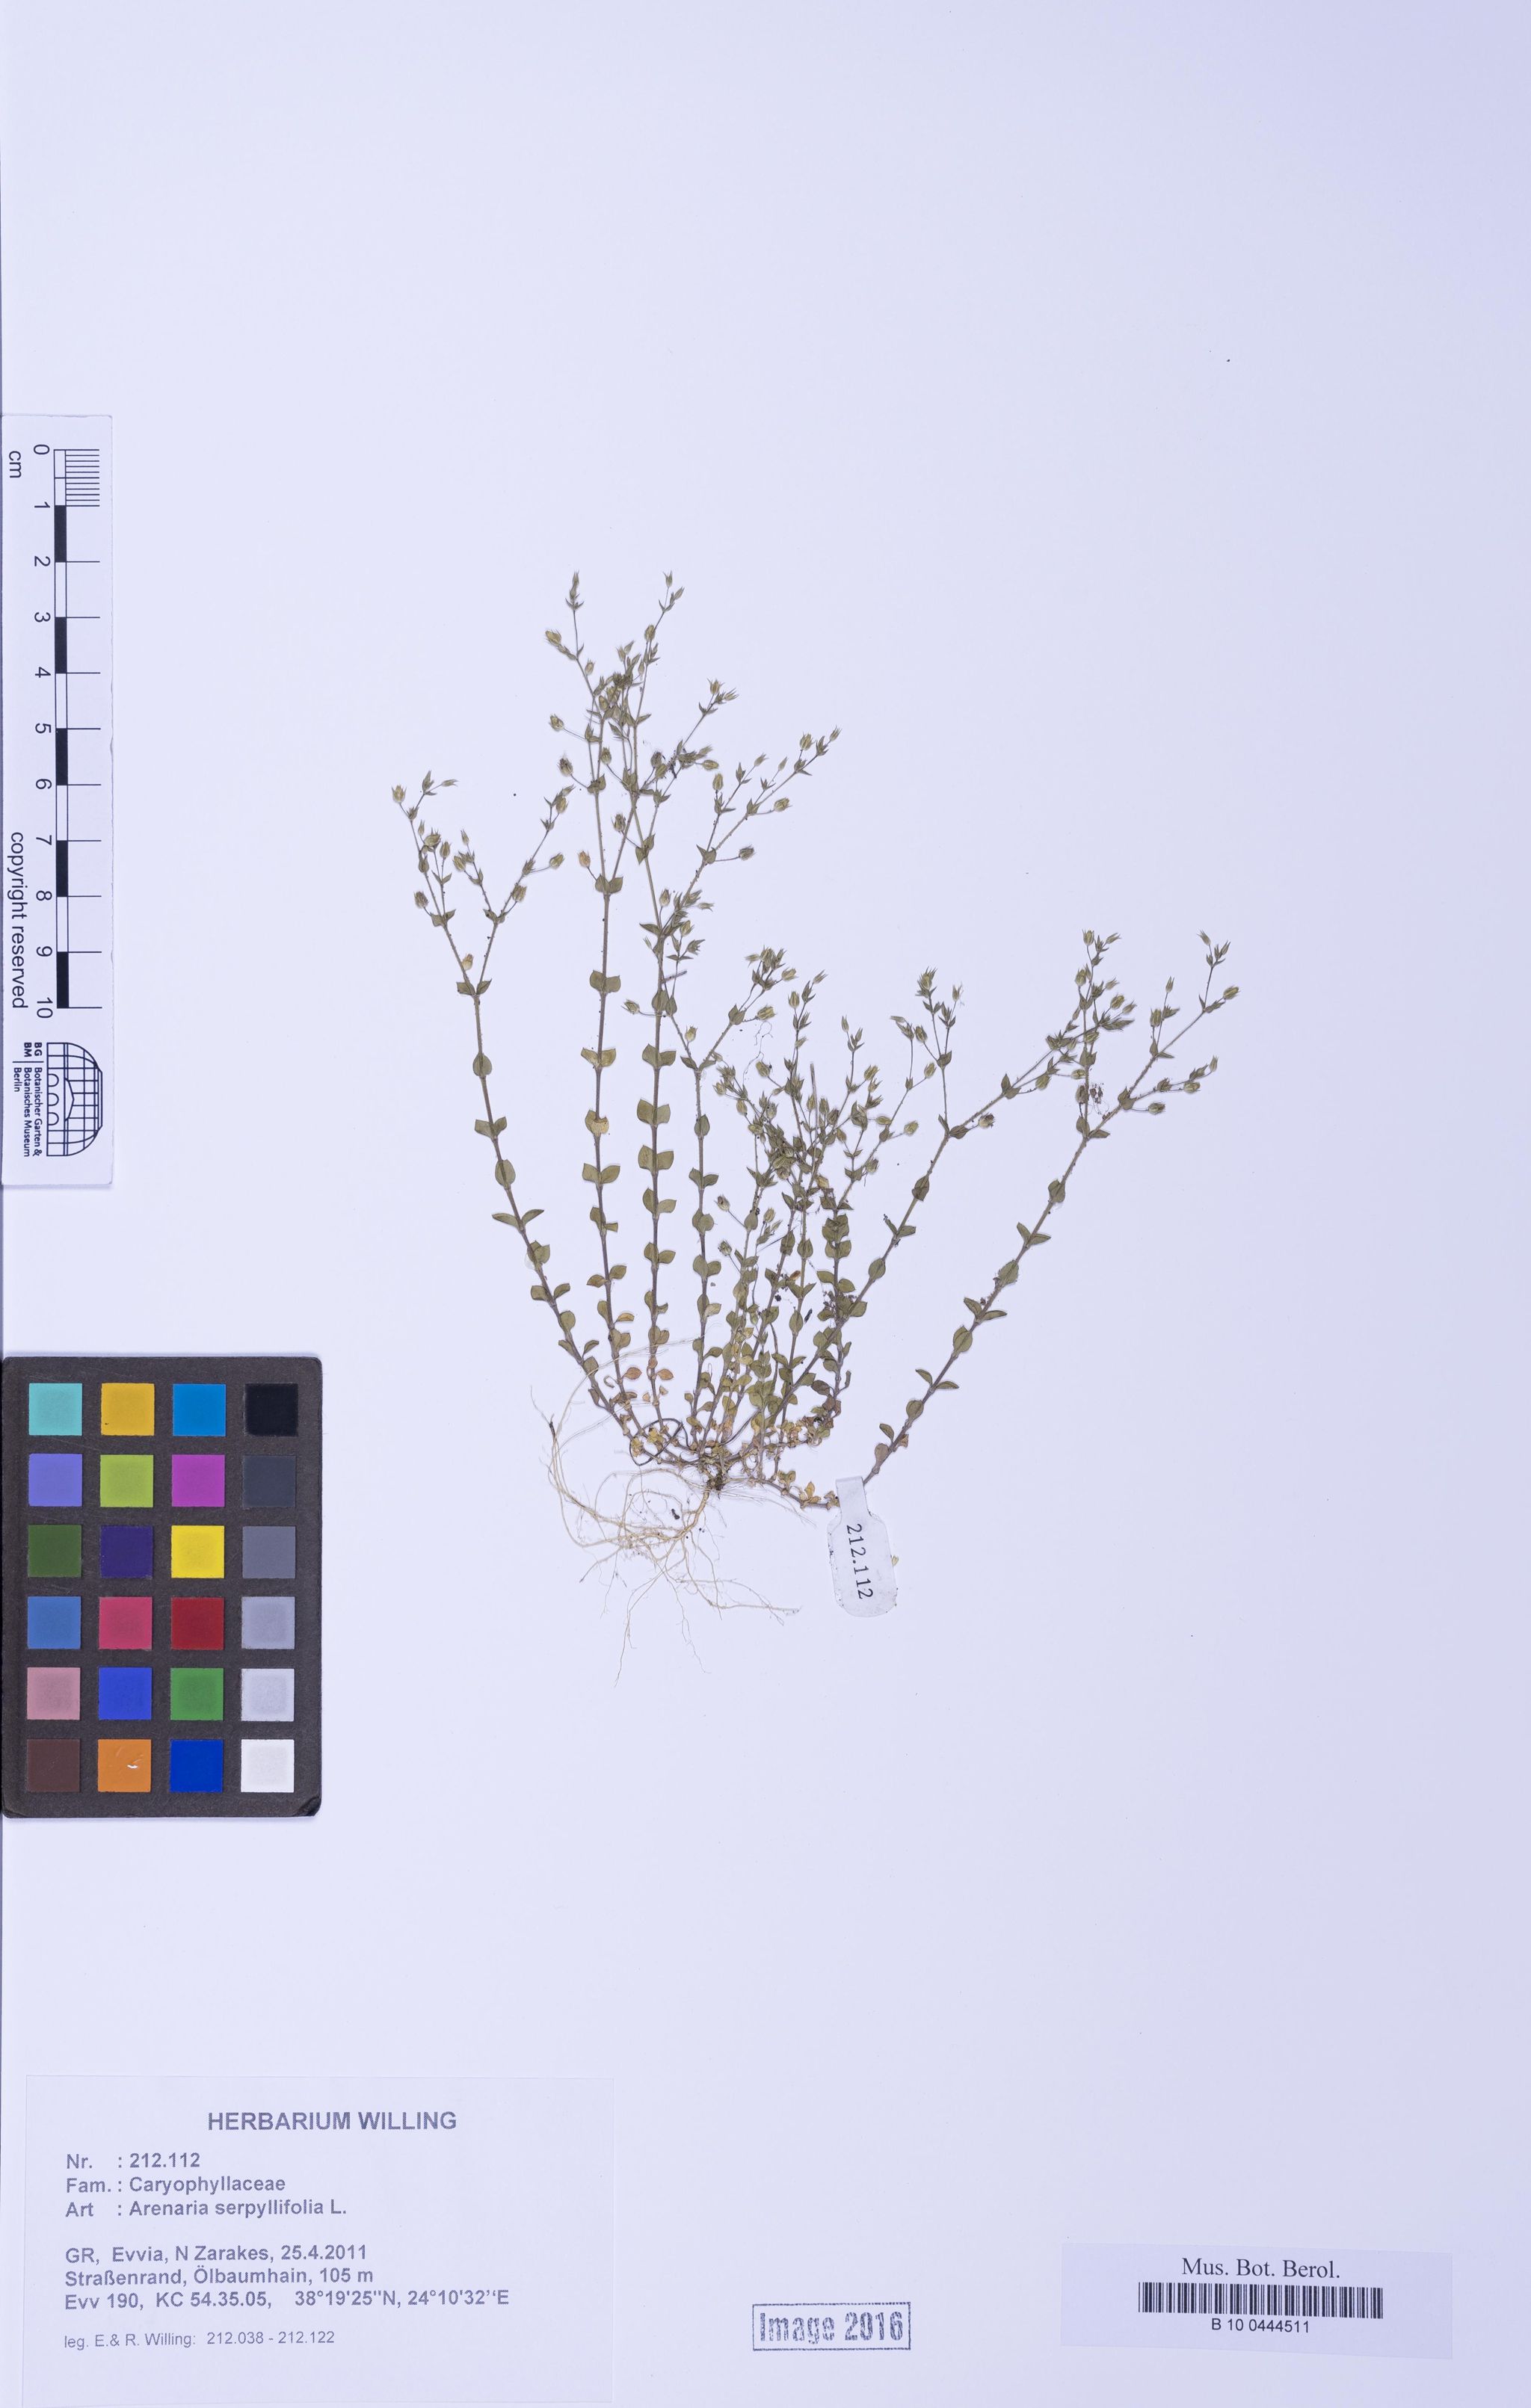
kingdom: Plantae
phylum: Tracheophyta
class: Magnoliopsida
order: Caryophyllales
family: Caryophyllaceae
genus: Arenaria
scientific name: Arenaria serpyllifolia
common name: Thyme-leaved sandwort
